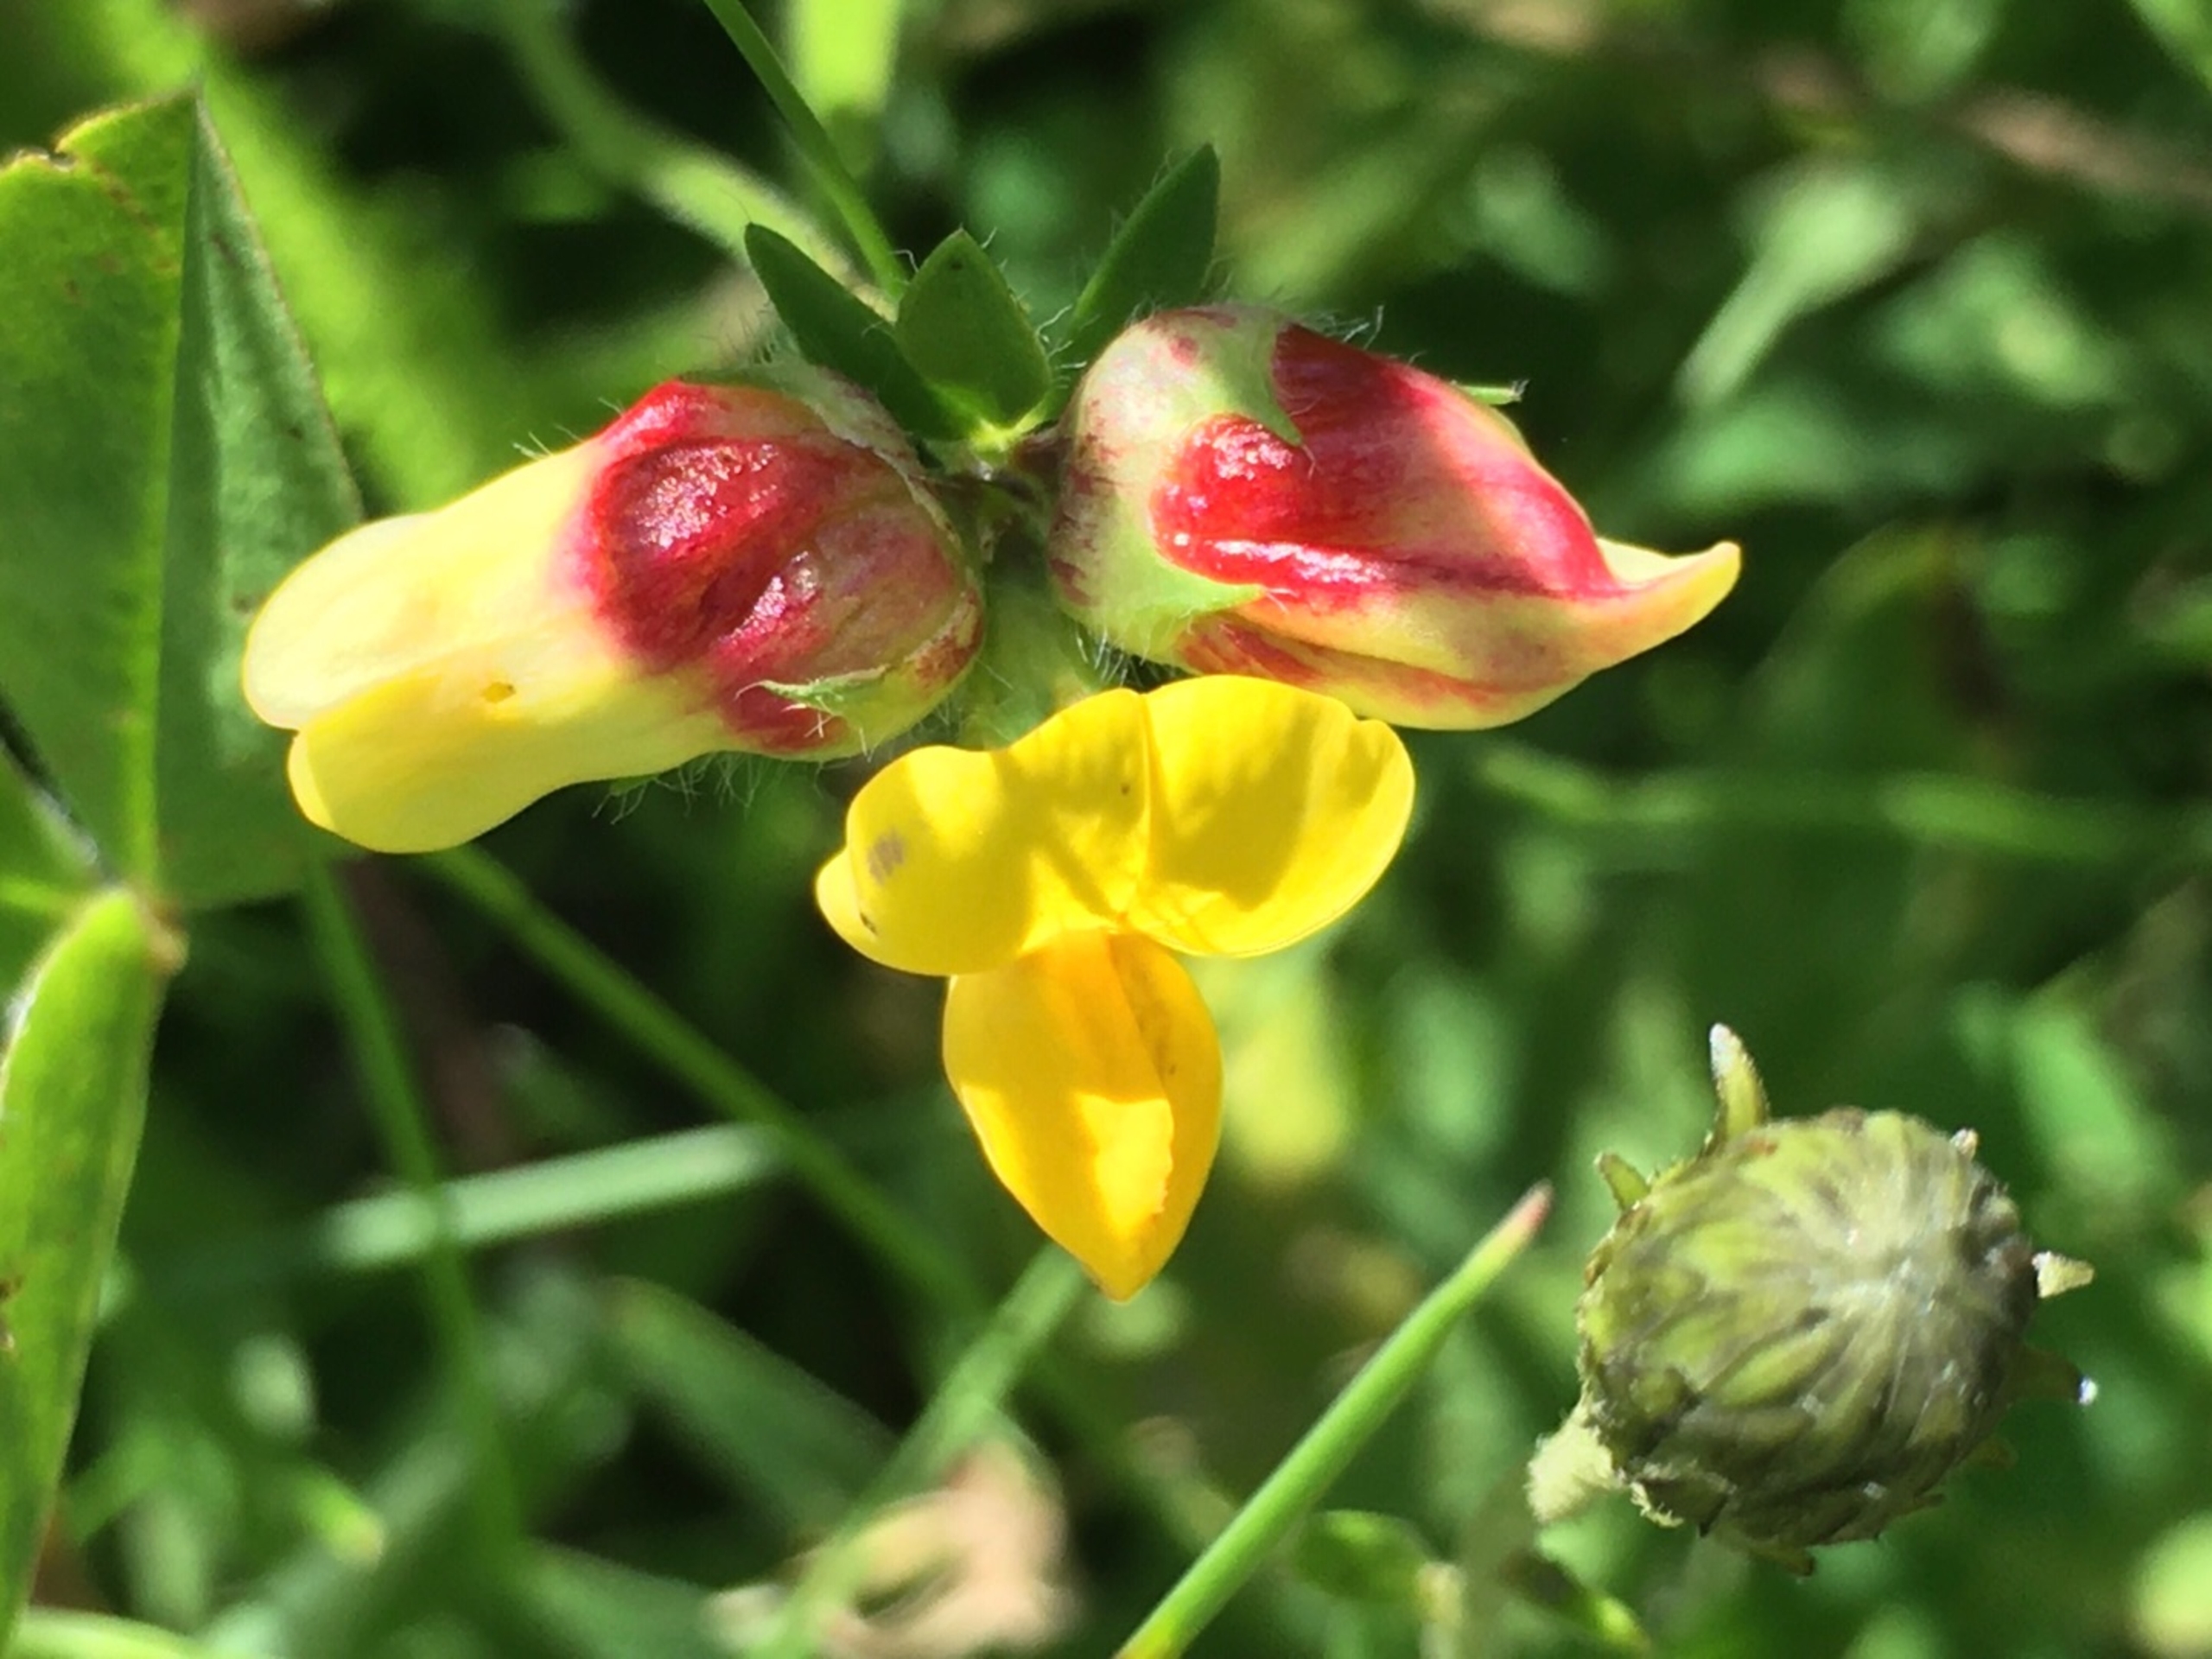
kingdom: Animalia
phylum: Arthropoda
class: Insecta
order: Diptera
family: Cecidomyiidae
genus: Contarinia
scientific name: Contarinia loti
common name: Kællingetandblomstgalmyg
